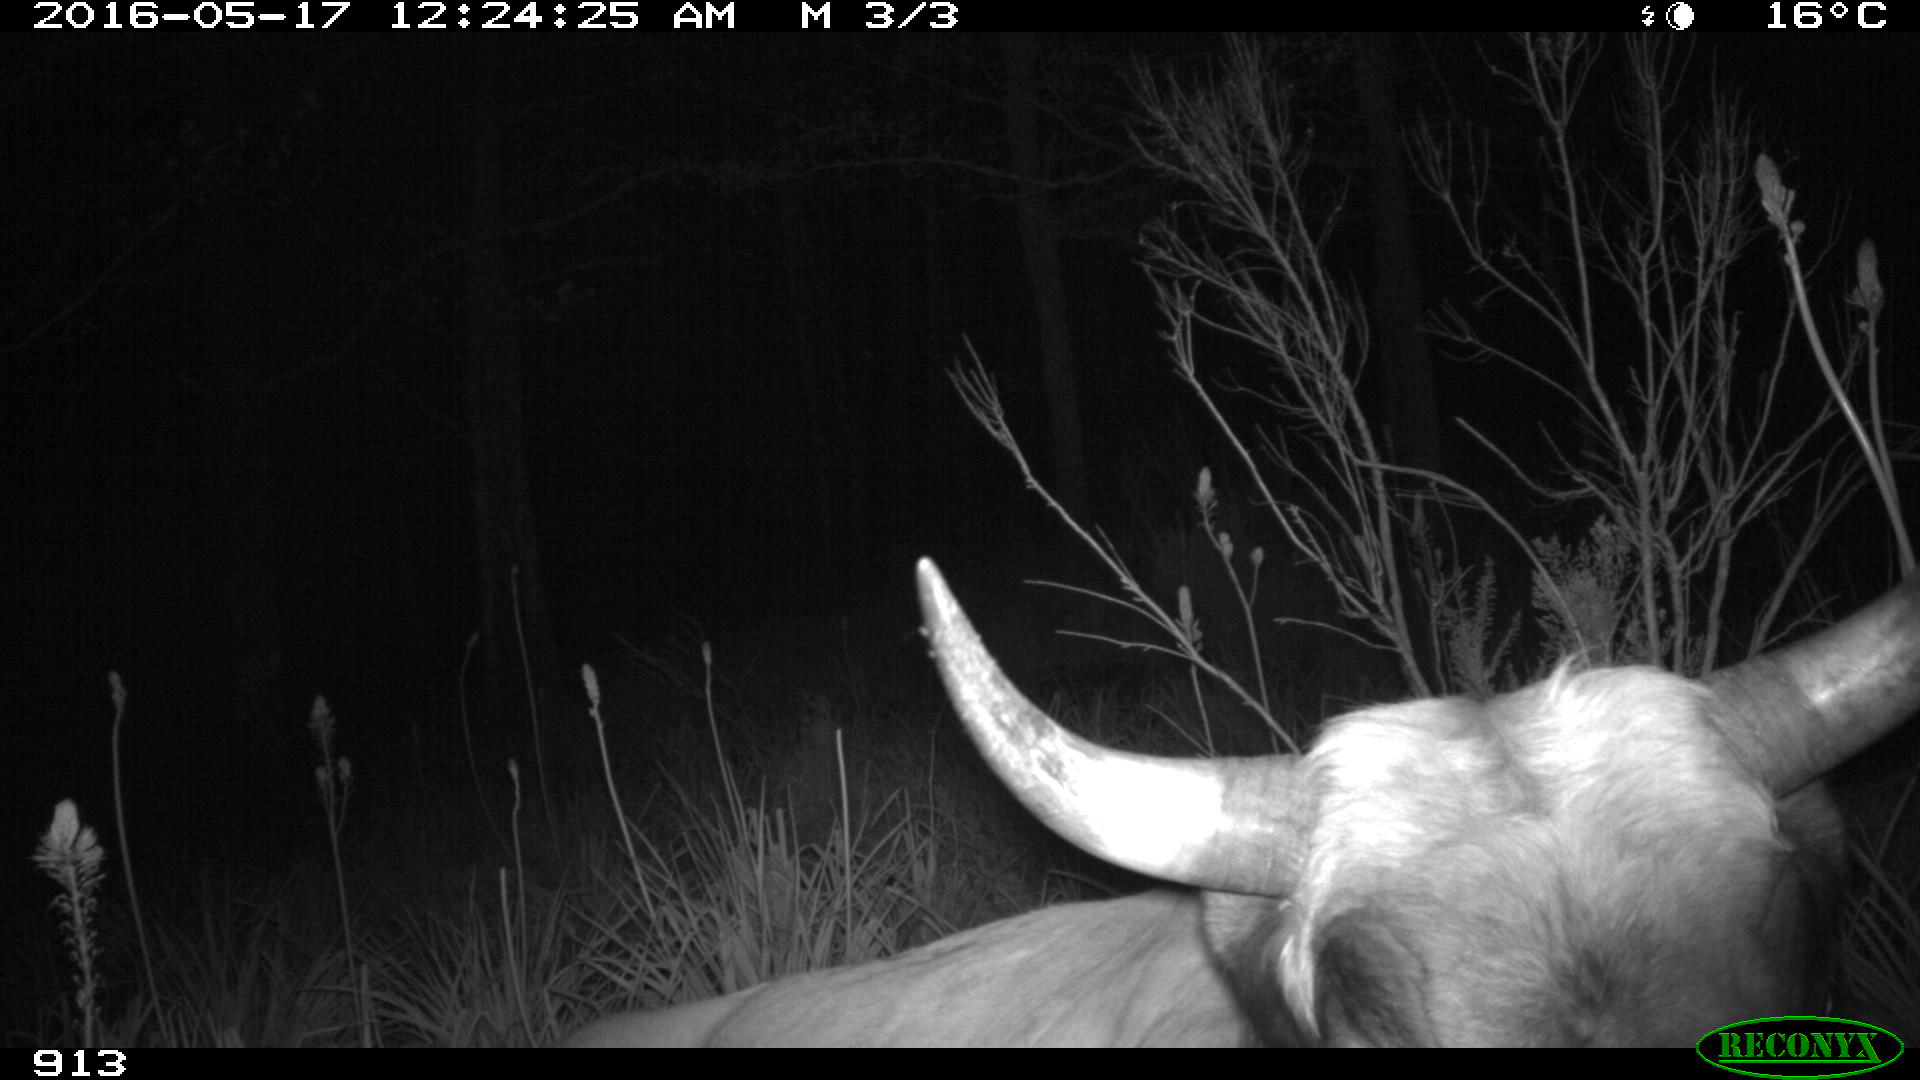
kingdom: Animalia
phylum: Chordata
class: Mammalia
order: Artiodactyla
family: Bovidae
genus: Bos
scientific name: Bos taurus
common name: Domesticated cattle
